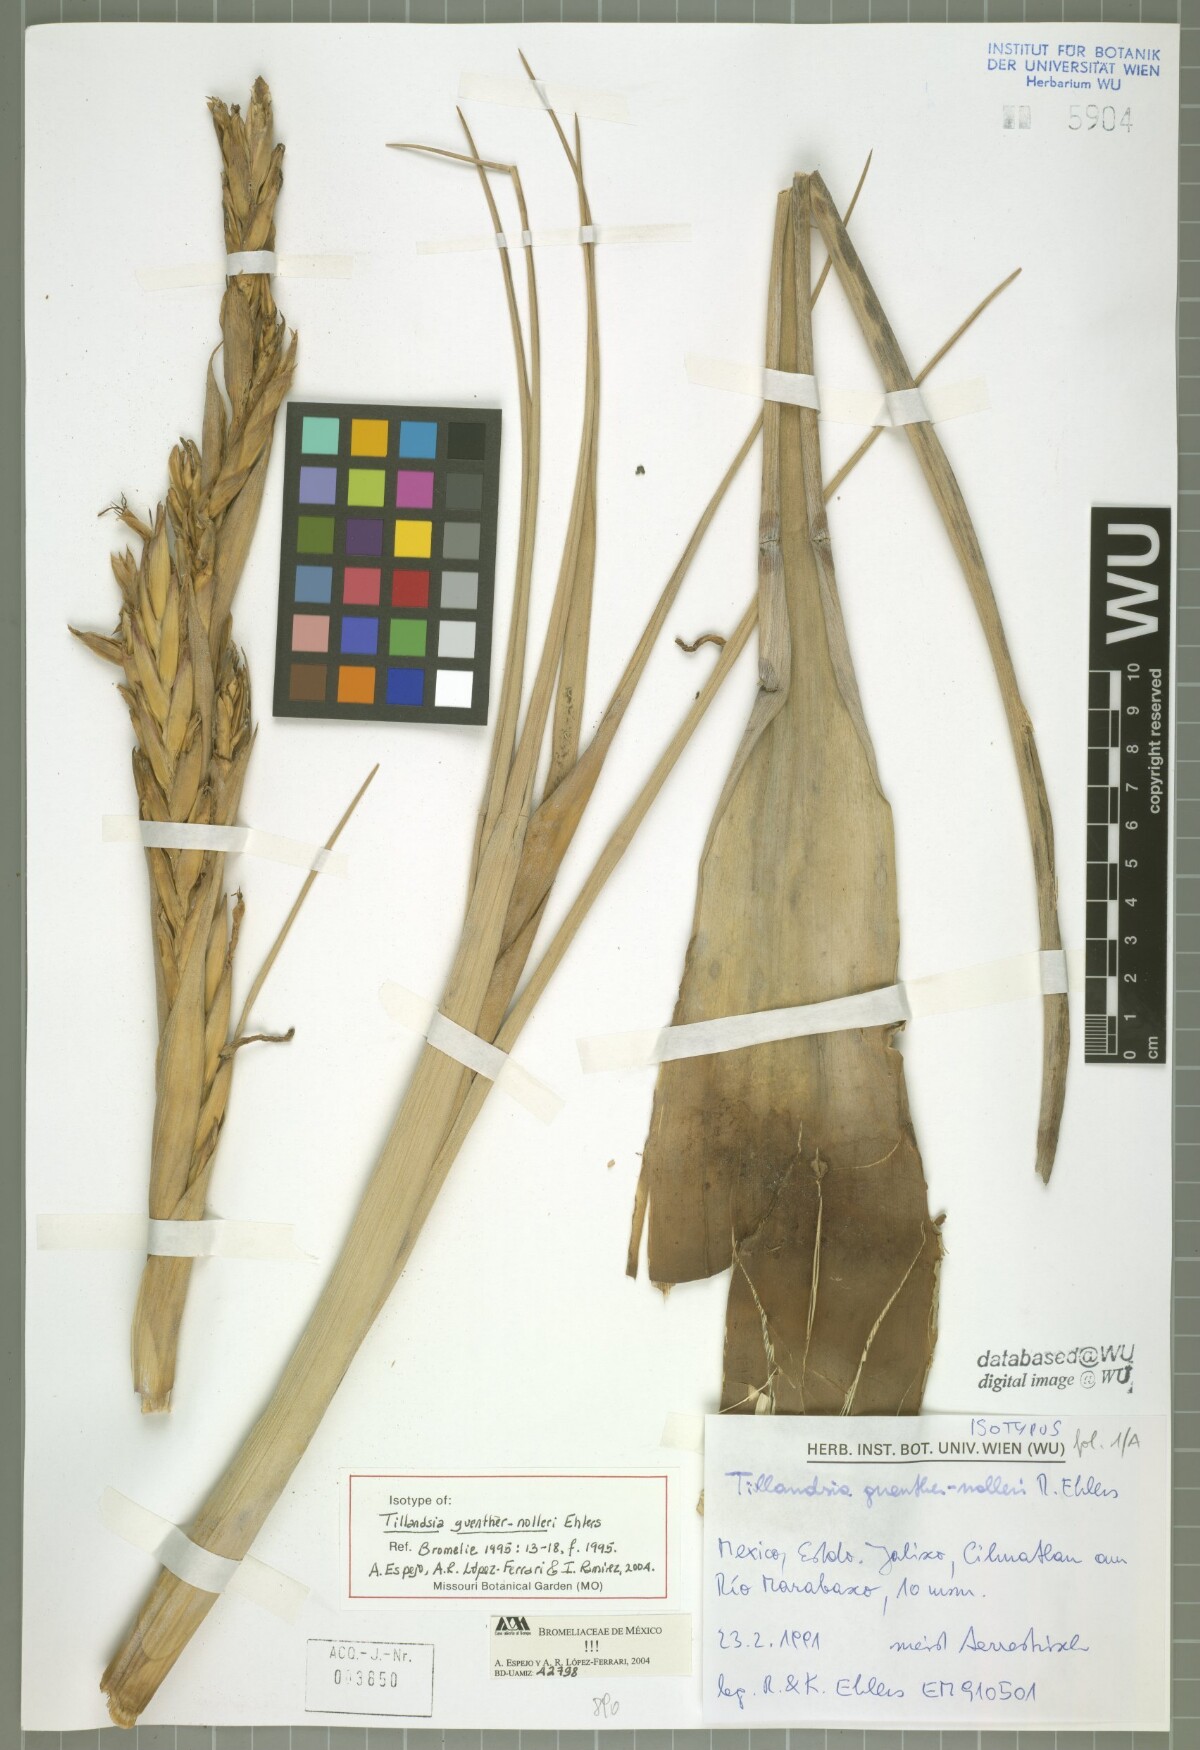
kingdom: Plantae
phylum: Tracheophyta
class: Liliopsida
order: Poales
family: Bromeliaceae
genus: Tillandsia
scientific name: Tillandsia guenther-nolleri
